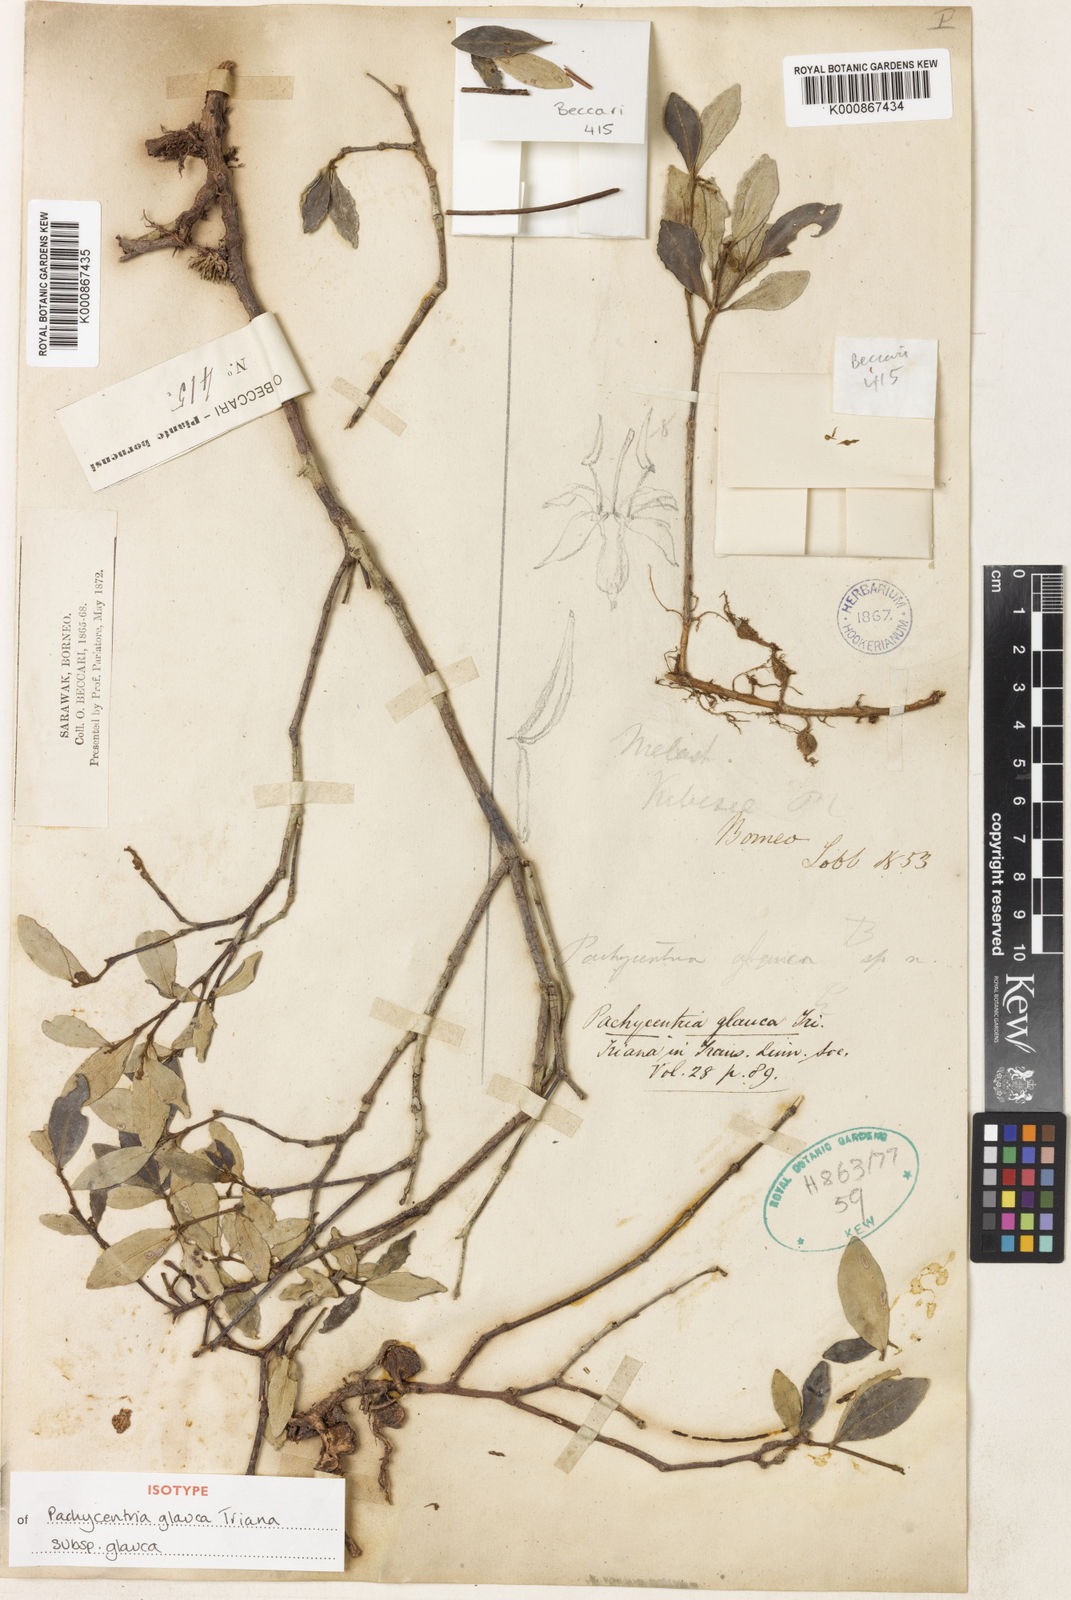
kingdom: Plantae
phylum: Tracheophyta
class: Magnoliopsida
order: Myrtales
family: Melastomataceae
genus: Pachycentria
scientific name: Pachycentria glauca
